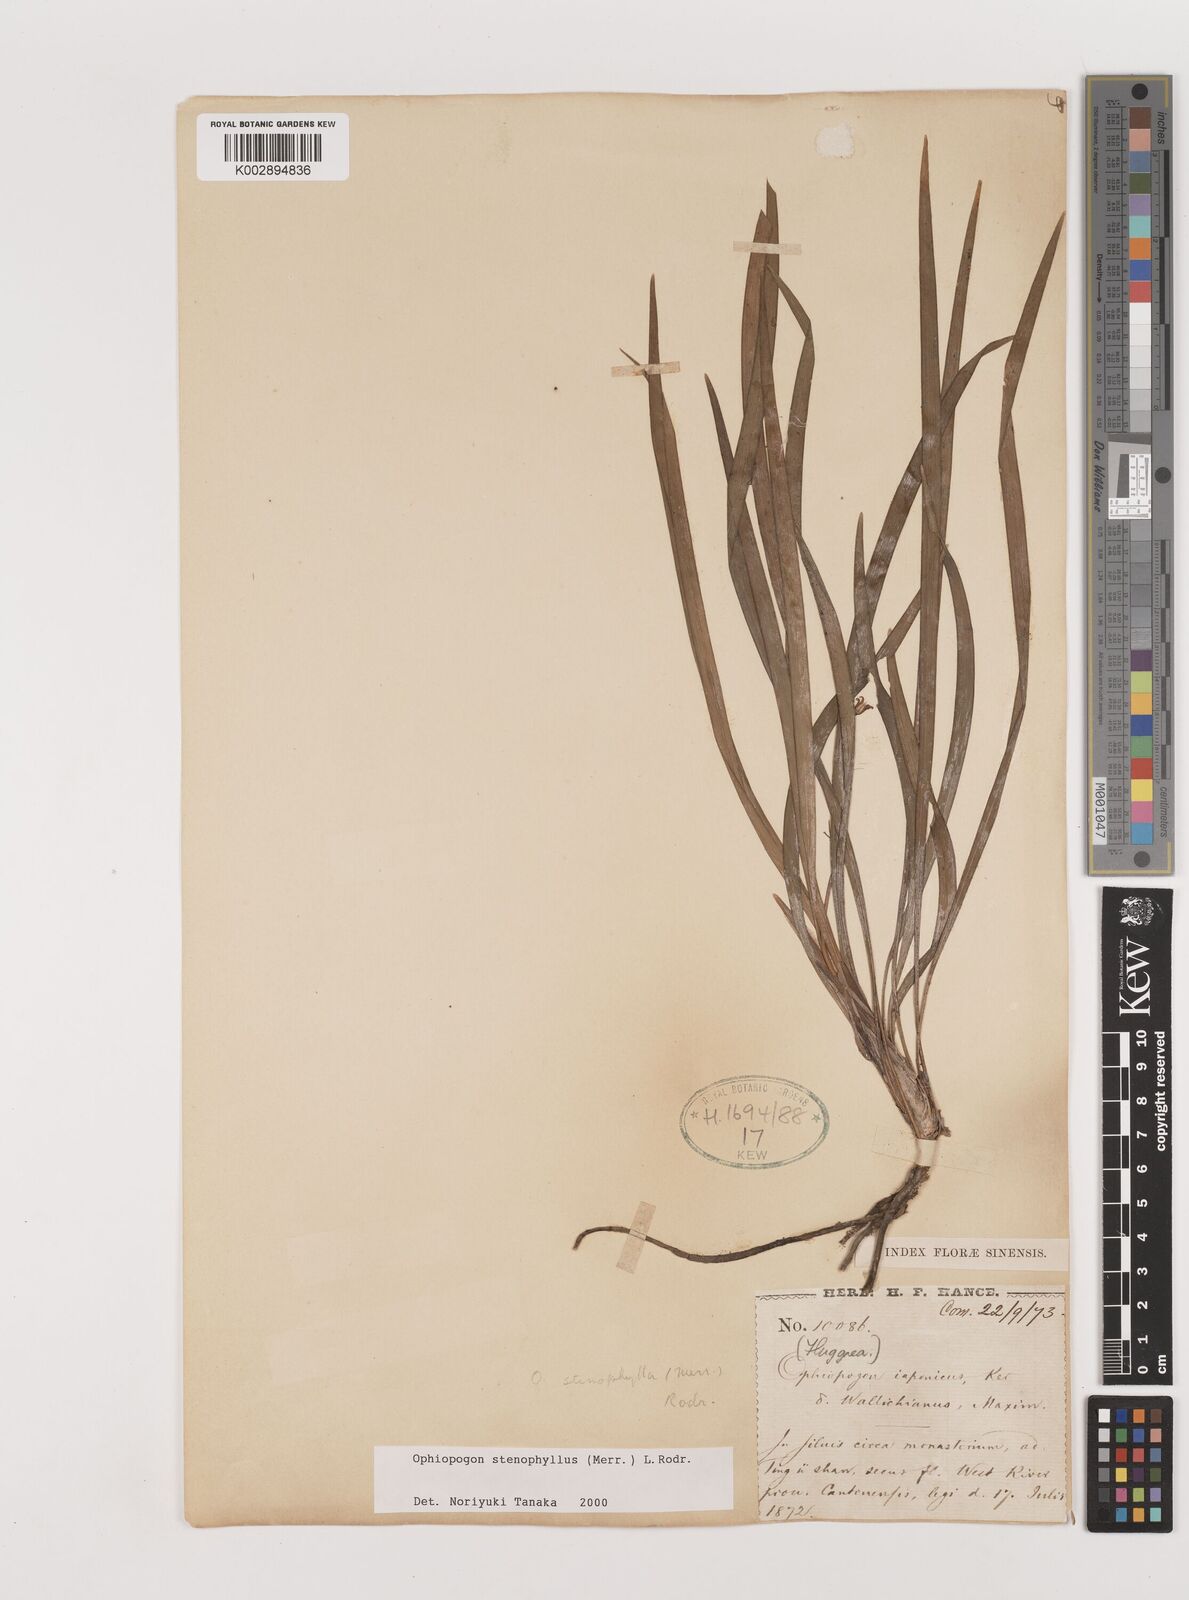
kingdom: Plantae
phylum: Tracheophyta
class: Liliopsida
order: Asparagales
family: Asparagaceae
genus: Ophiopogon
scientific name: Ophiopogon stenophyllus
